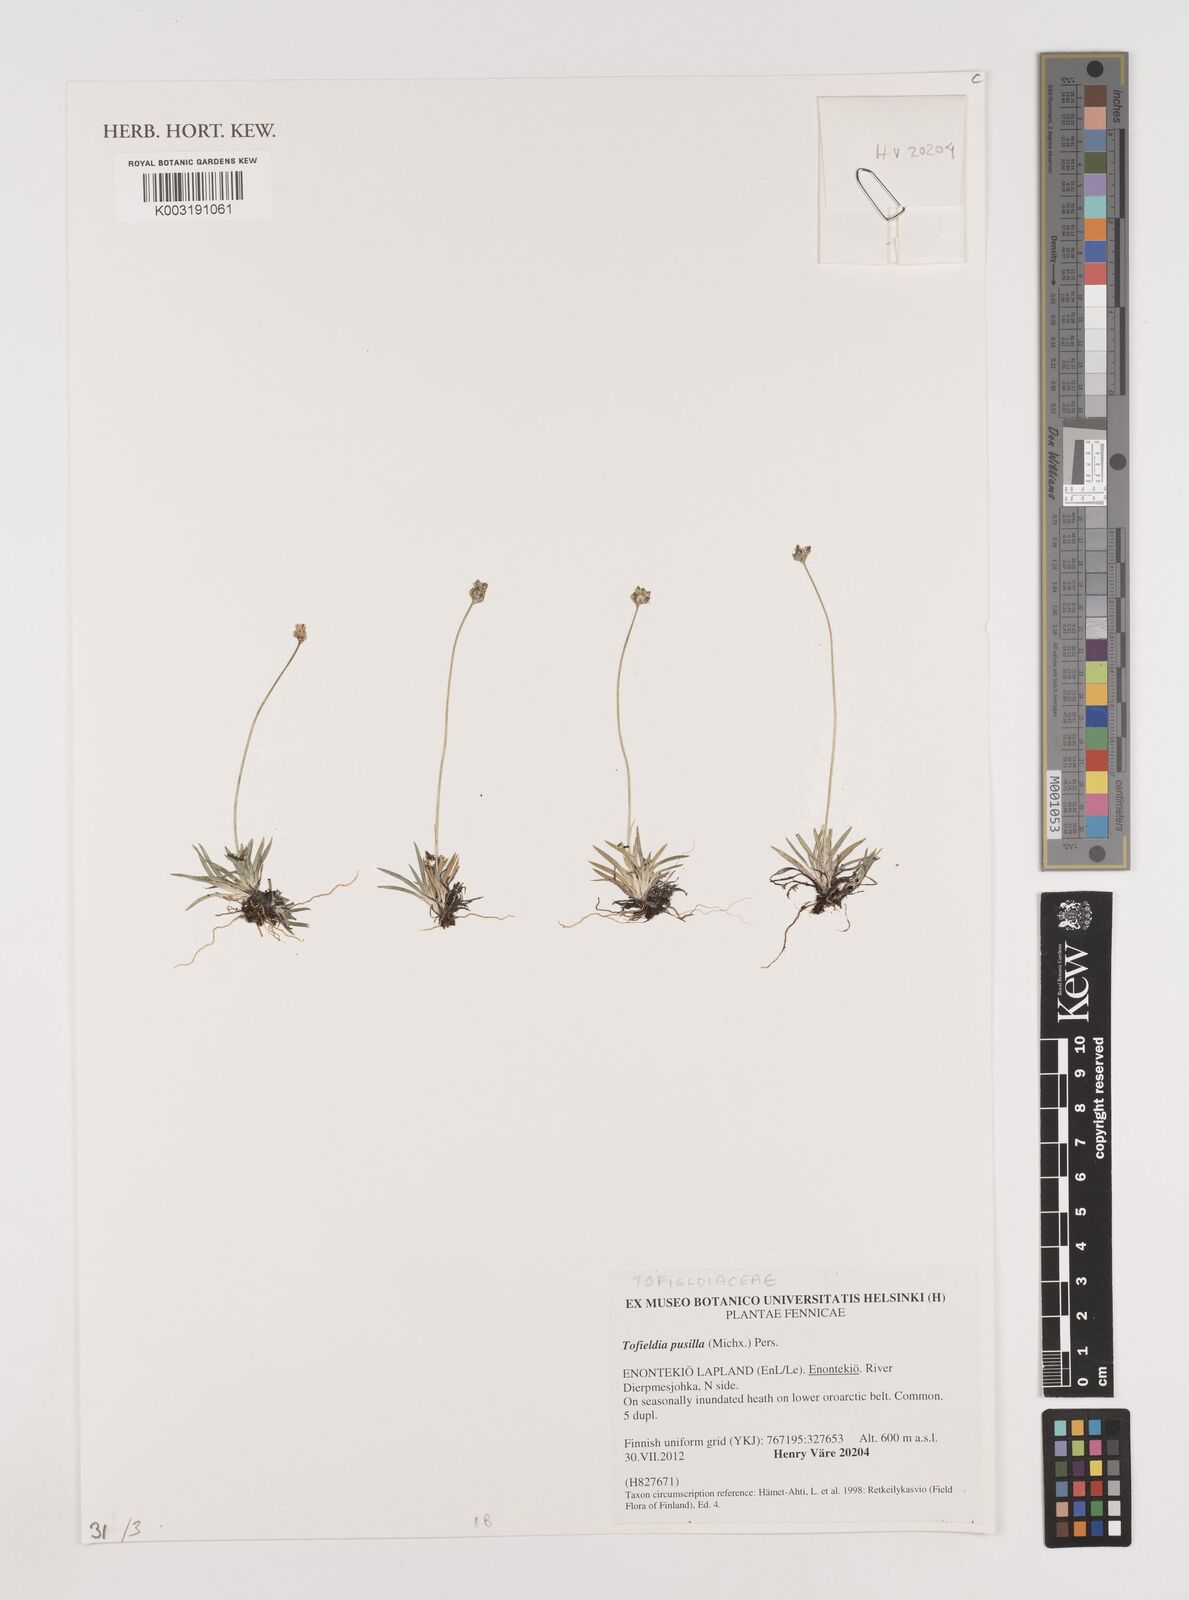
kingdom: Plantae
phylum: Tracheophyta
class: Liliopsida
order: Alismatales
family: Tofieldiaceae
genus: Tofieldia
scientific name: Tofieldia pusilla
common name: Scottish false asphodel
